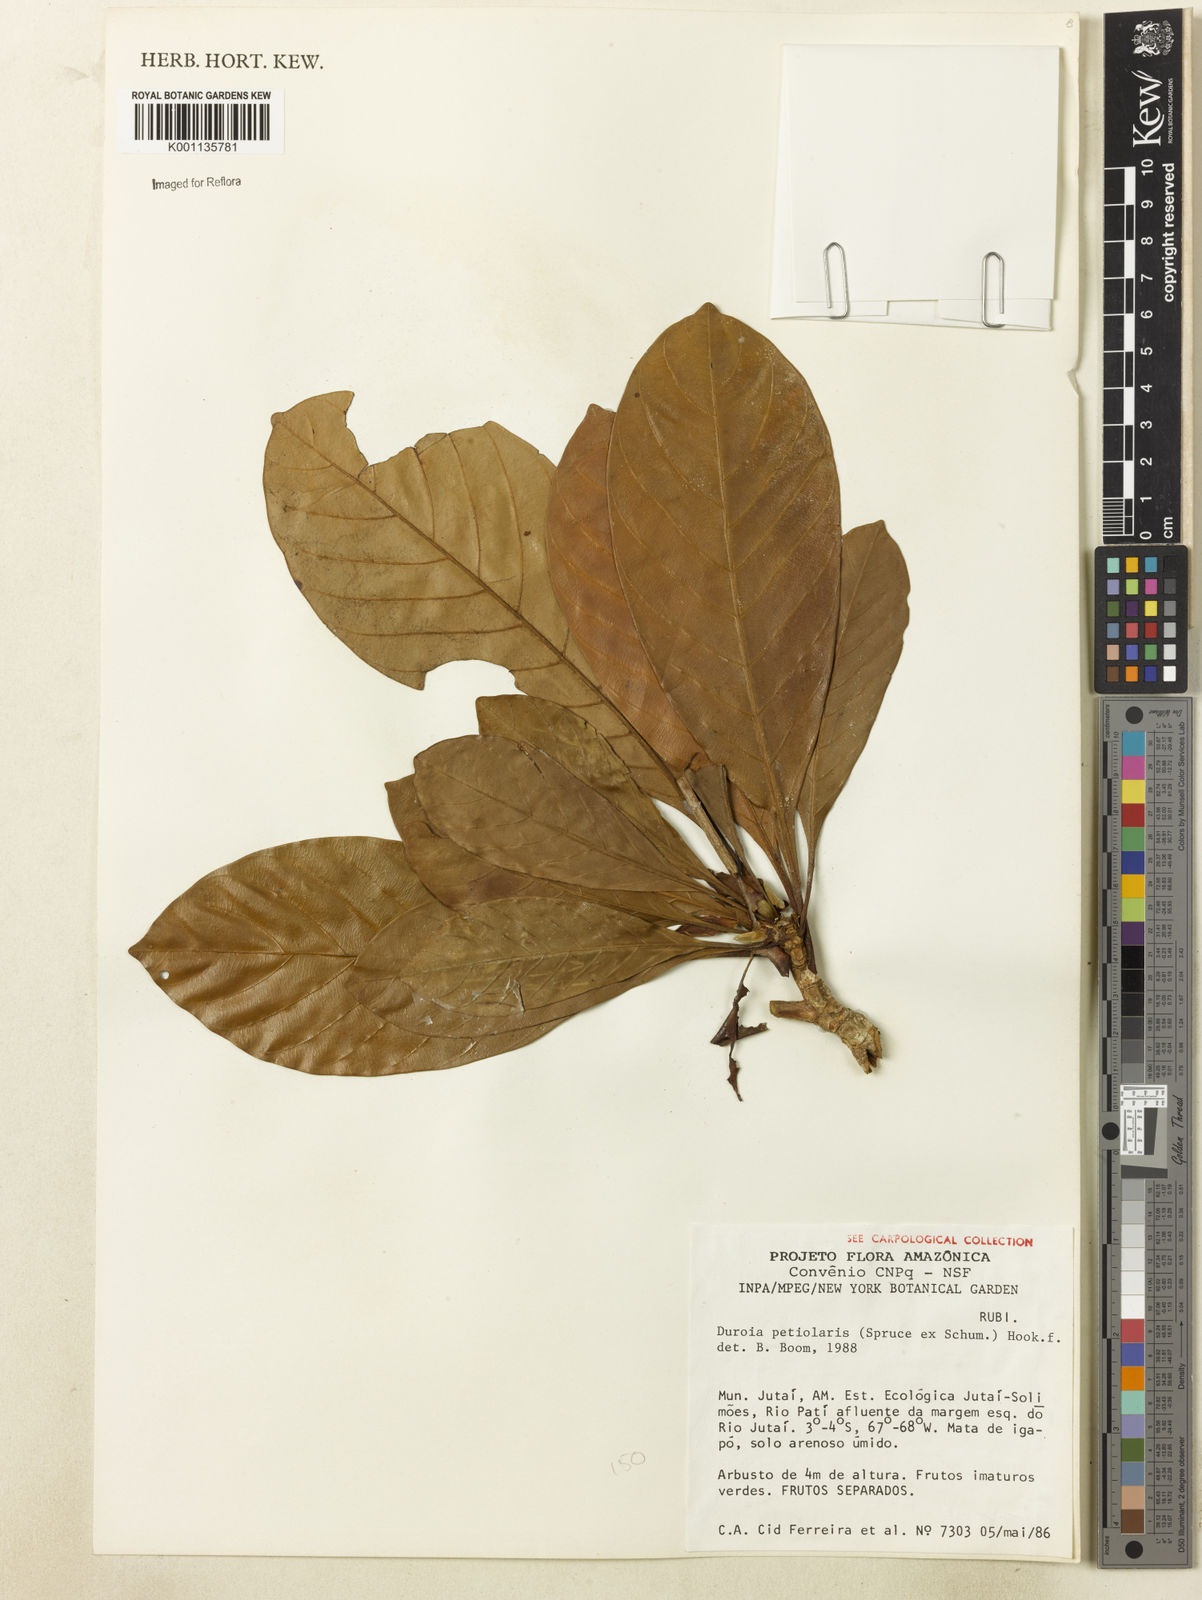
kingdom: Plantae
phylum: Tracheophyta
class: Magnoliopsida
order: Gentianales
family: Rubiaceae
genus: Duroia
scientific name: Duroia petiolaris
